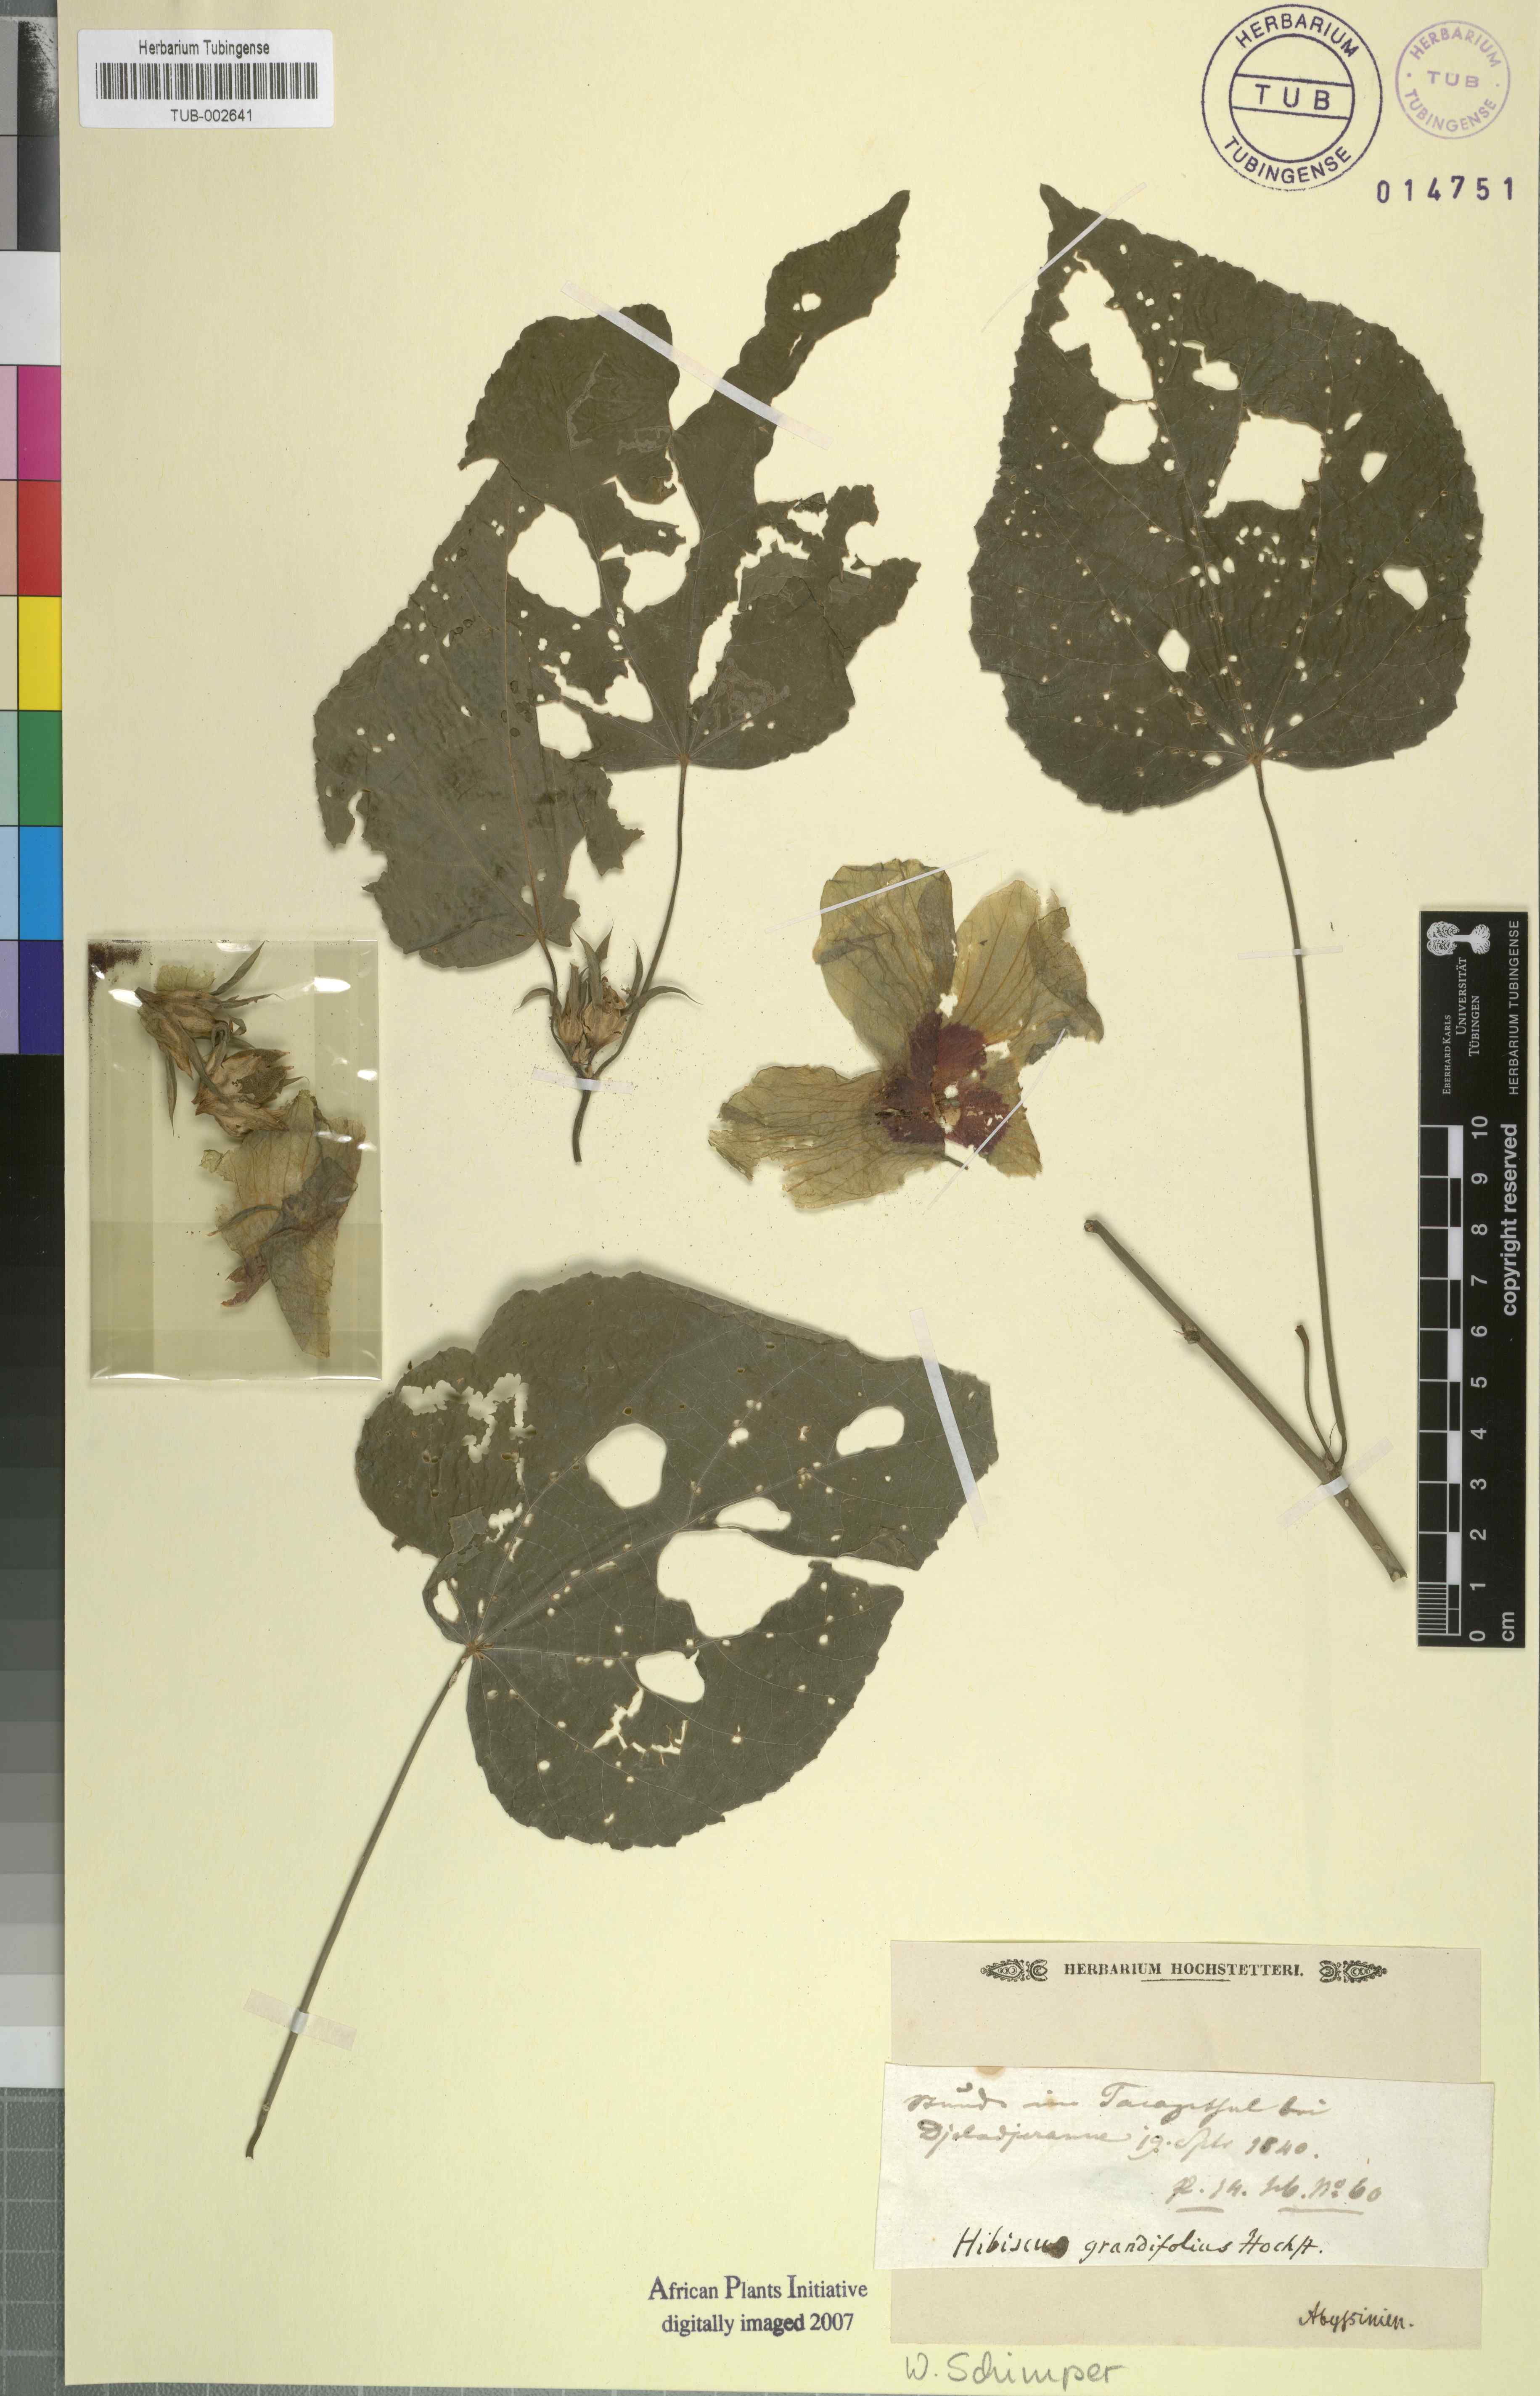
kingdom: Plantae
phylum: Tracheophyta
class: Magnoliopsida
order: Malvales
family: Malvaceae
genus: Hibiscus
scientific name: Hibiscus calyphyllus
